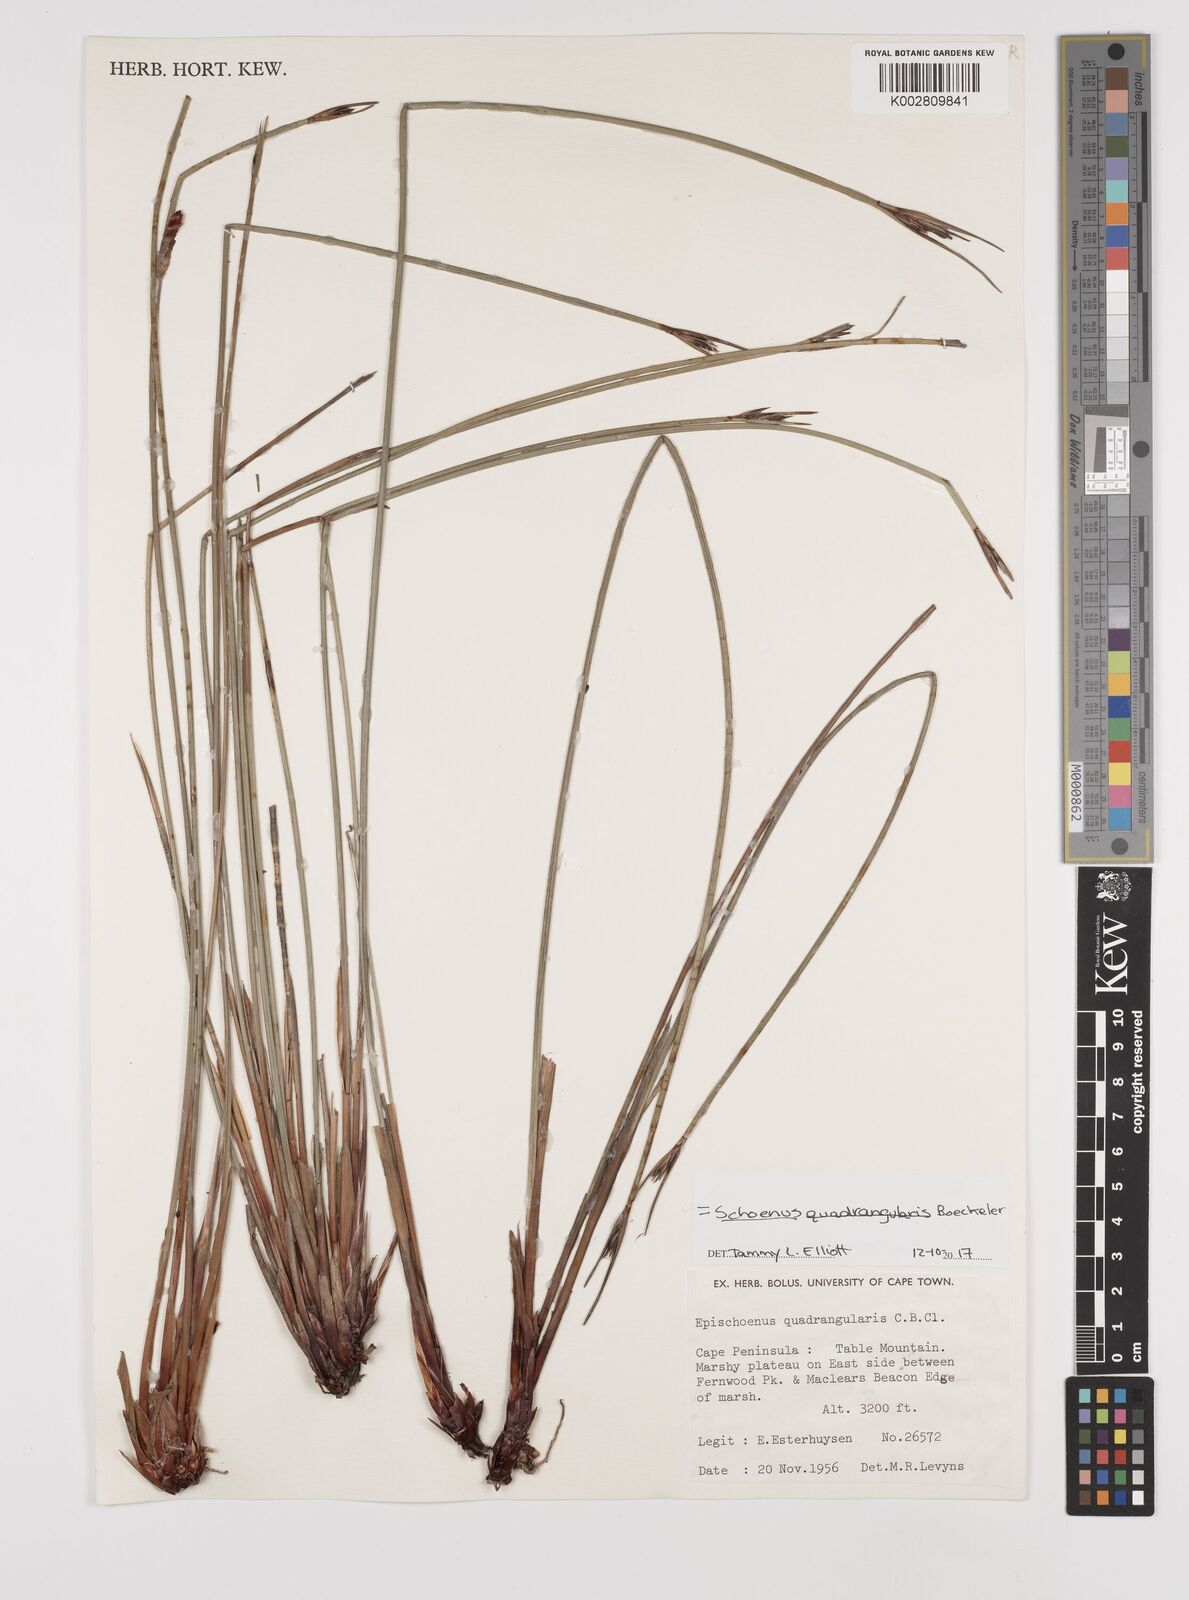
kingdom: Plantae
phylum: Tracheophyta
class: Liliopsida
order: Poales
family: Cyperaceae
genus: Schoenus
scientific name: Schoenus quadrangularis
